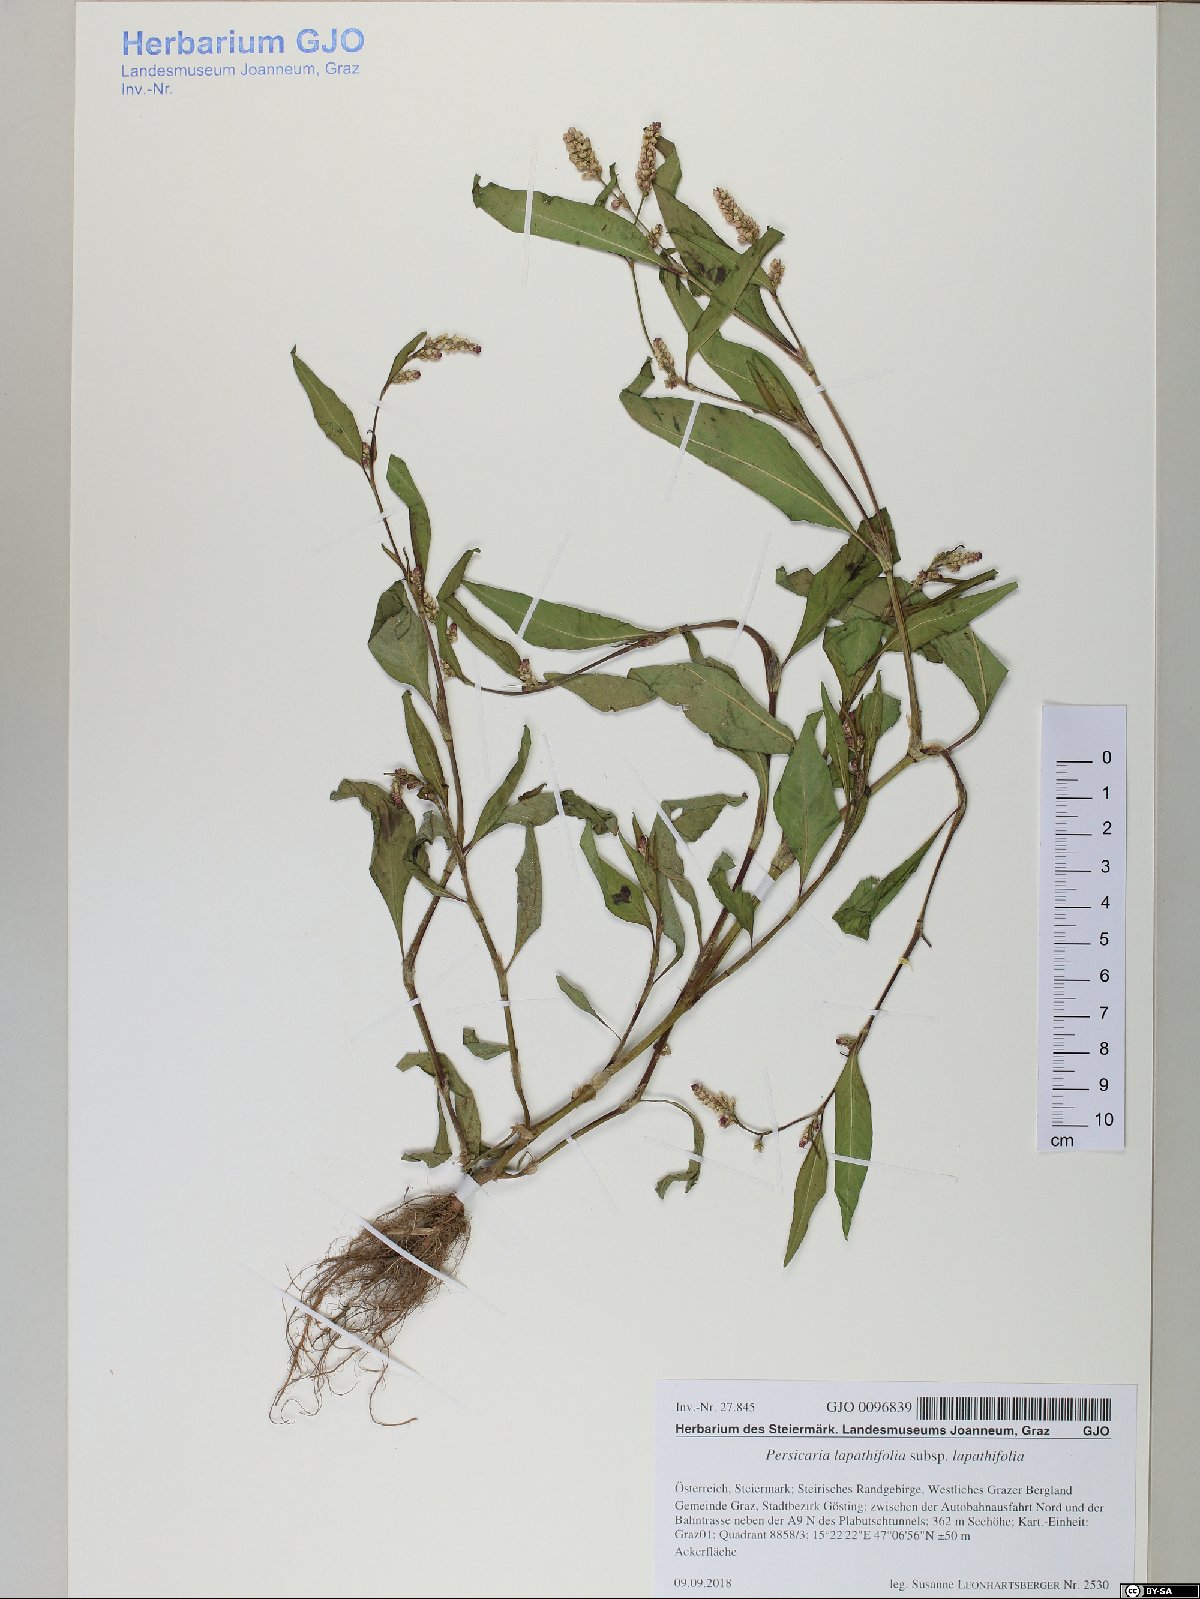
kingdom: Plantae
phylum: Tracheophyta
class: Magnoliopsida
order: Caryophyllales
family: Polygonaceae
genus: Persicaria
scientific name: Persicaria lapathifolia
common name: Curlytop knotweed
